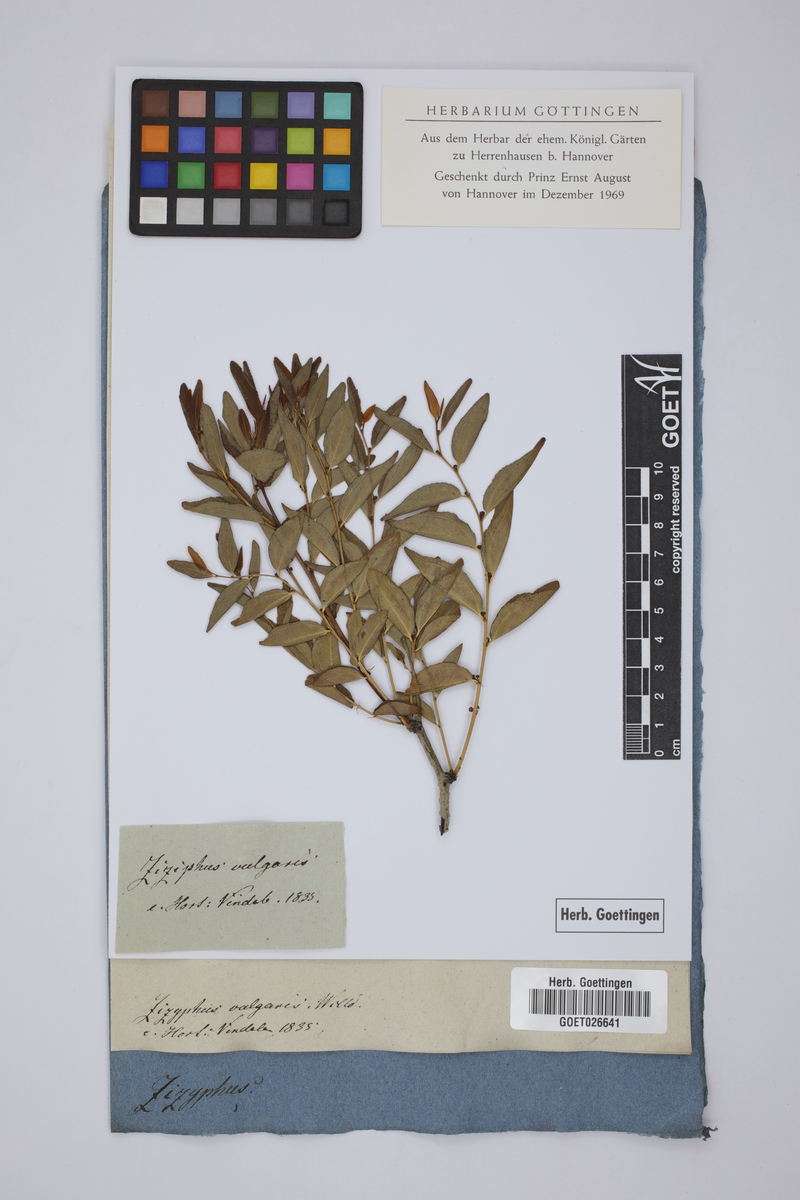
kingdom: Plantae
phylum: Tracheophyta
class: Magnoliopsida
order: Rosales
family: Rhamnaceae
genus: Ziziphus
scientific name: Ziziphus jujuba
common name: Jujube red date
